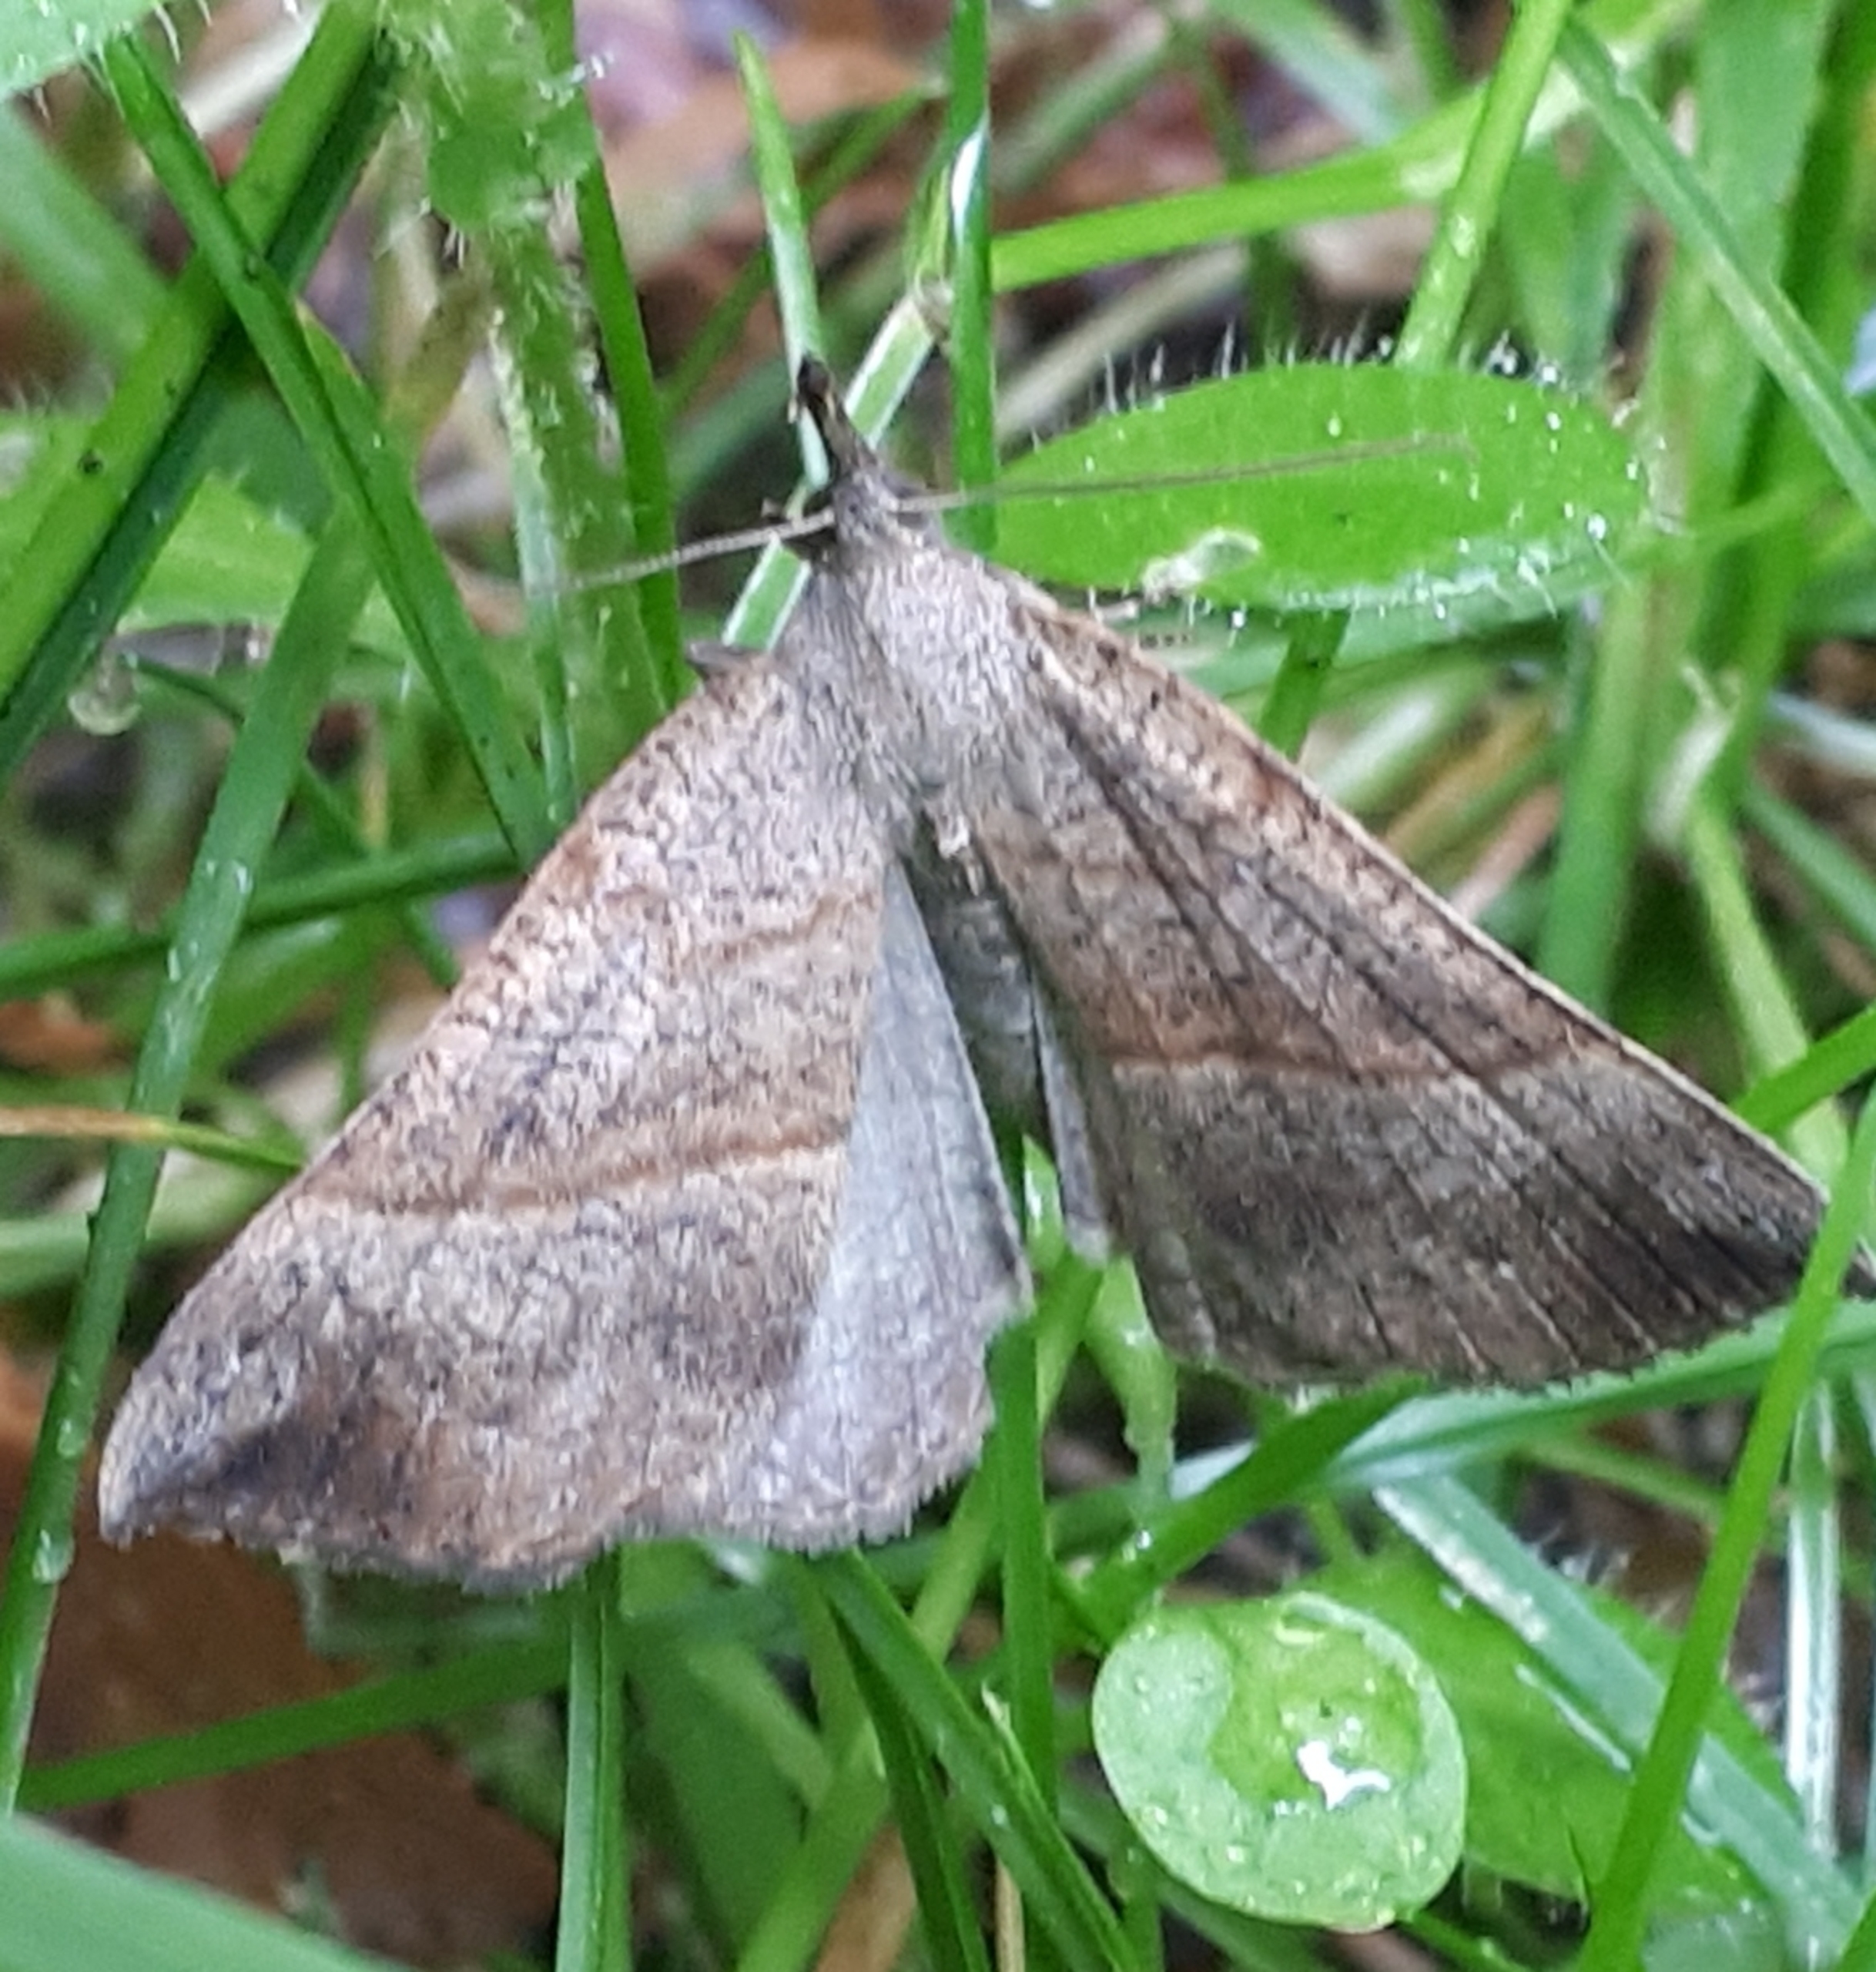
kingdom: Animalia
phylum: Arthropoda
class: Insecta
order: Lepidoptera
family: Erebidae
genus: Hypena
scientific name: Hypena proboscidalis
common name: Snudeugle
